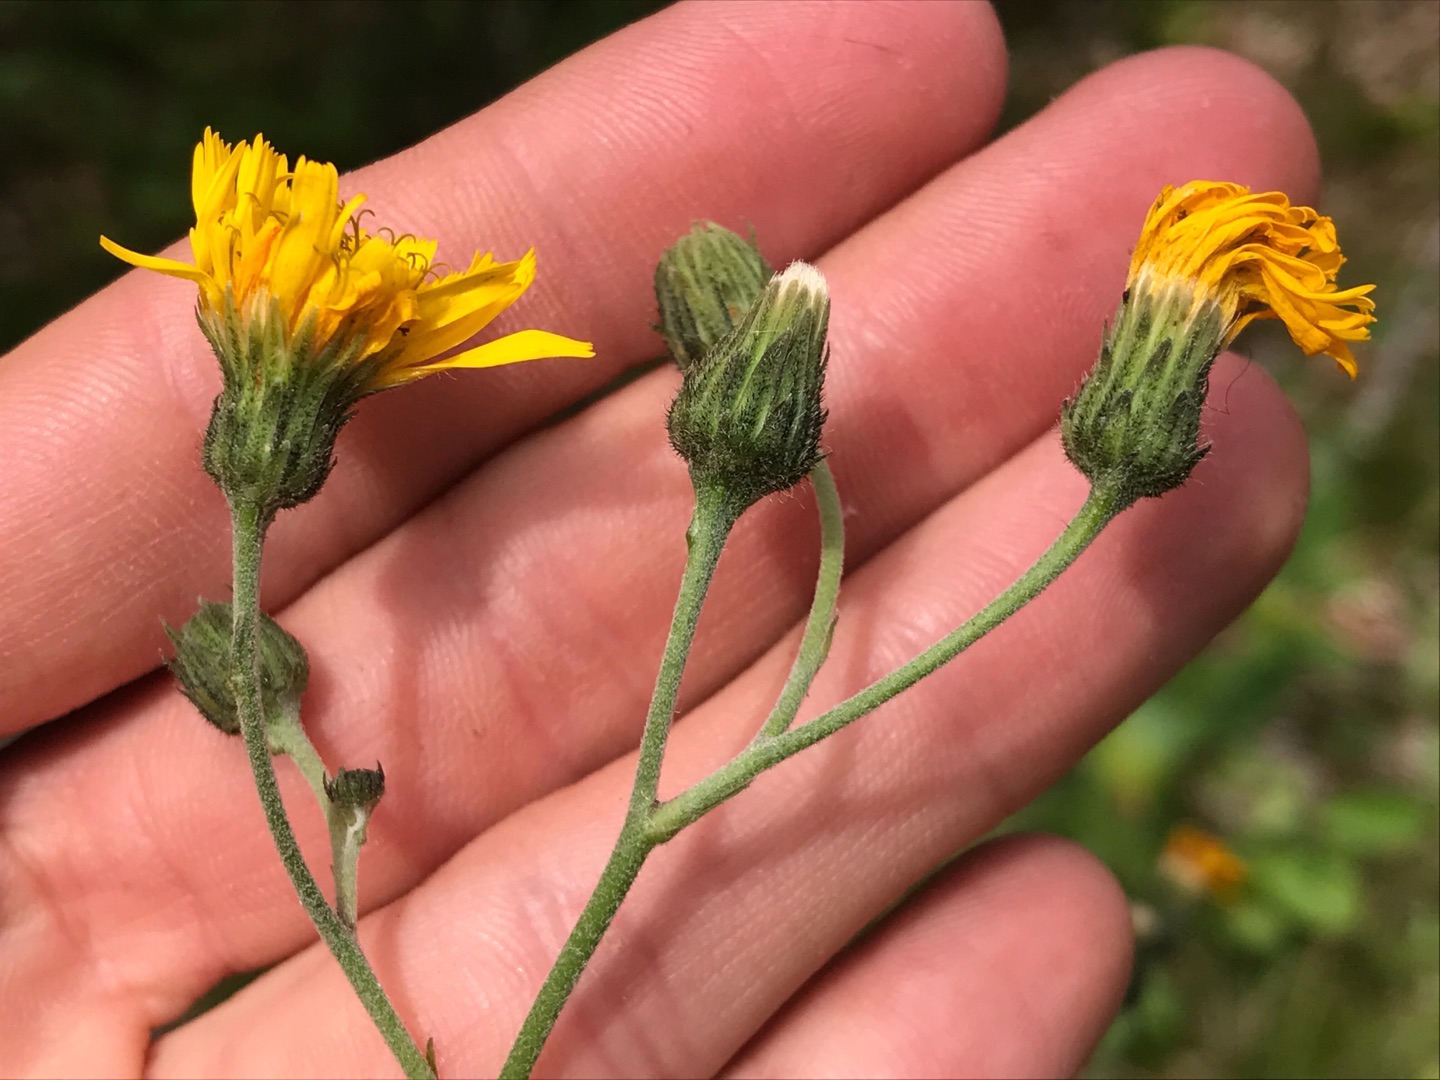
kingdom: Plantae
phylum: Tracheophyta
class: Magnoliopsida
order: Asterales
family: Asteraceae
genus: Hieracium
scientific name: Hieracium laevigatum
